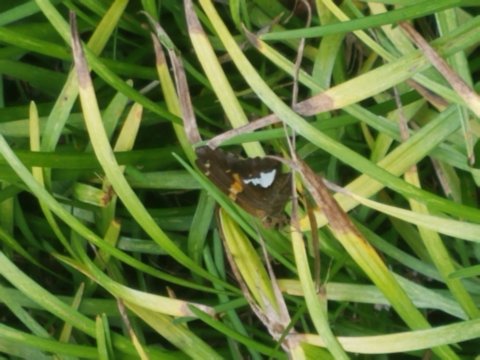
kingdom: Animalia
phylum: Arthropoda
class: Insecta
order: Lepidoptera
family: Hesperiidae
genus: Epargyreus
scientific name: Epargyreus clarus
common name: Silver-spotted Skipper
